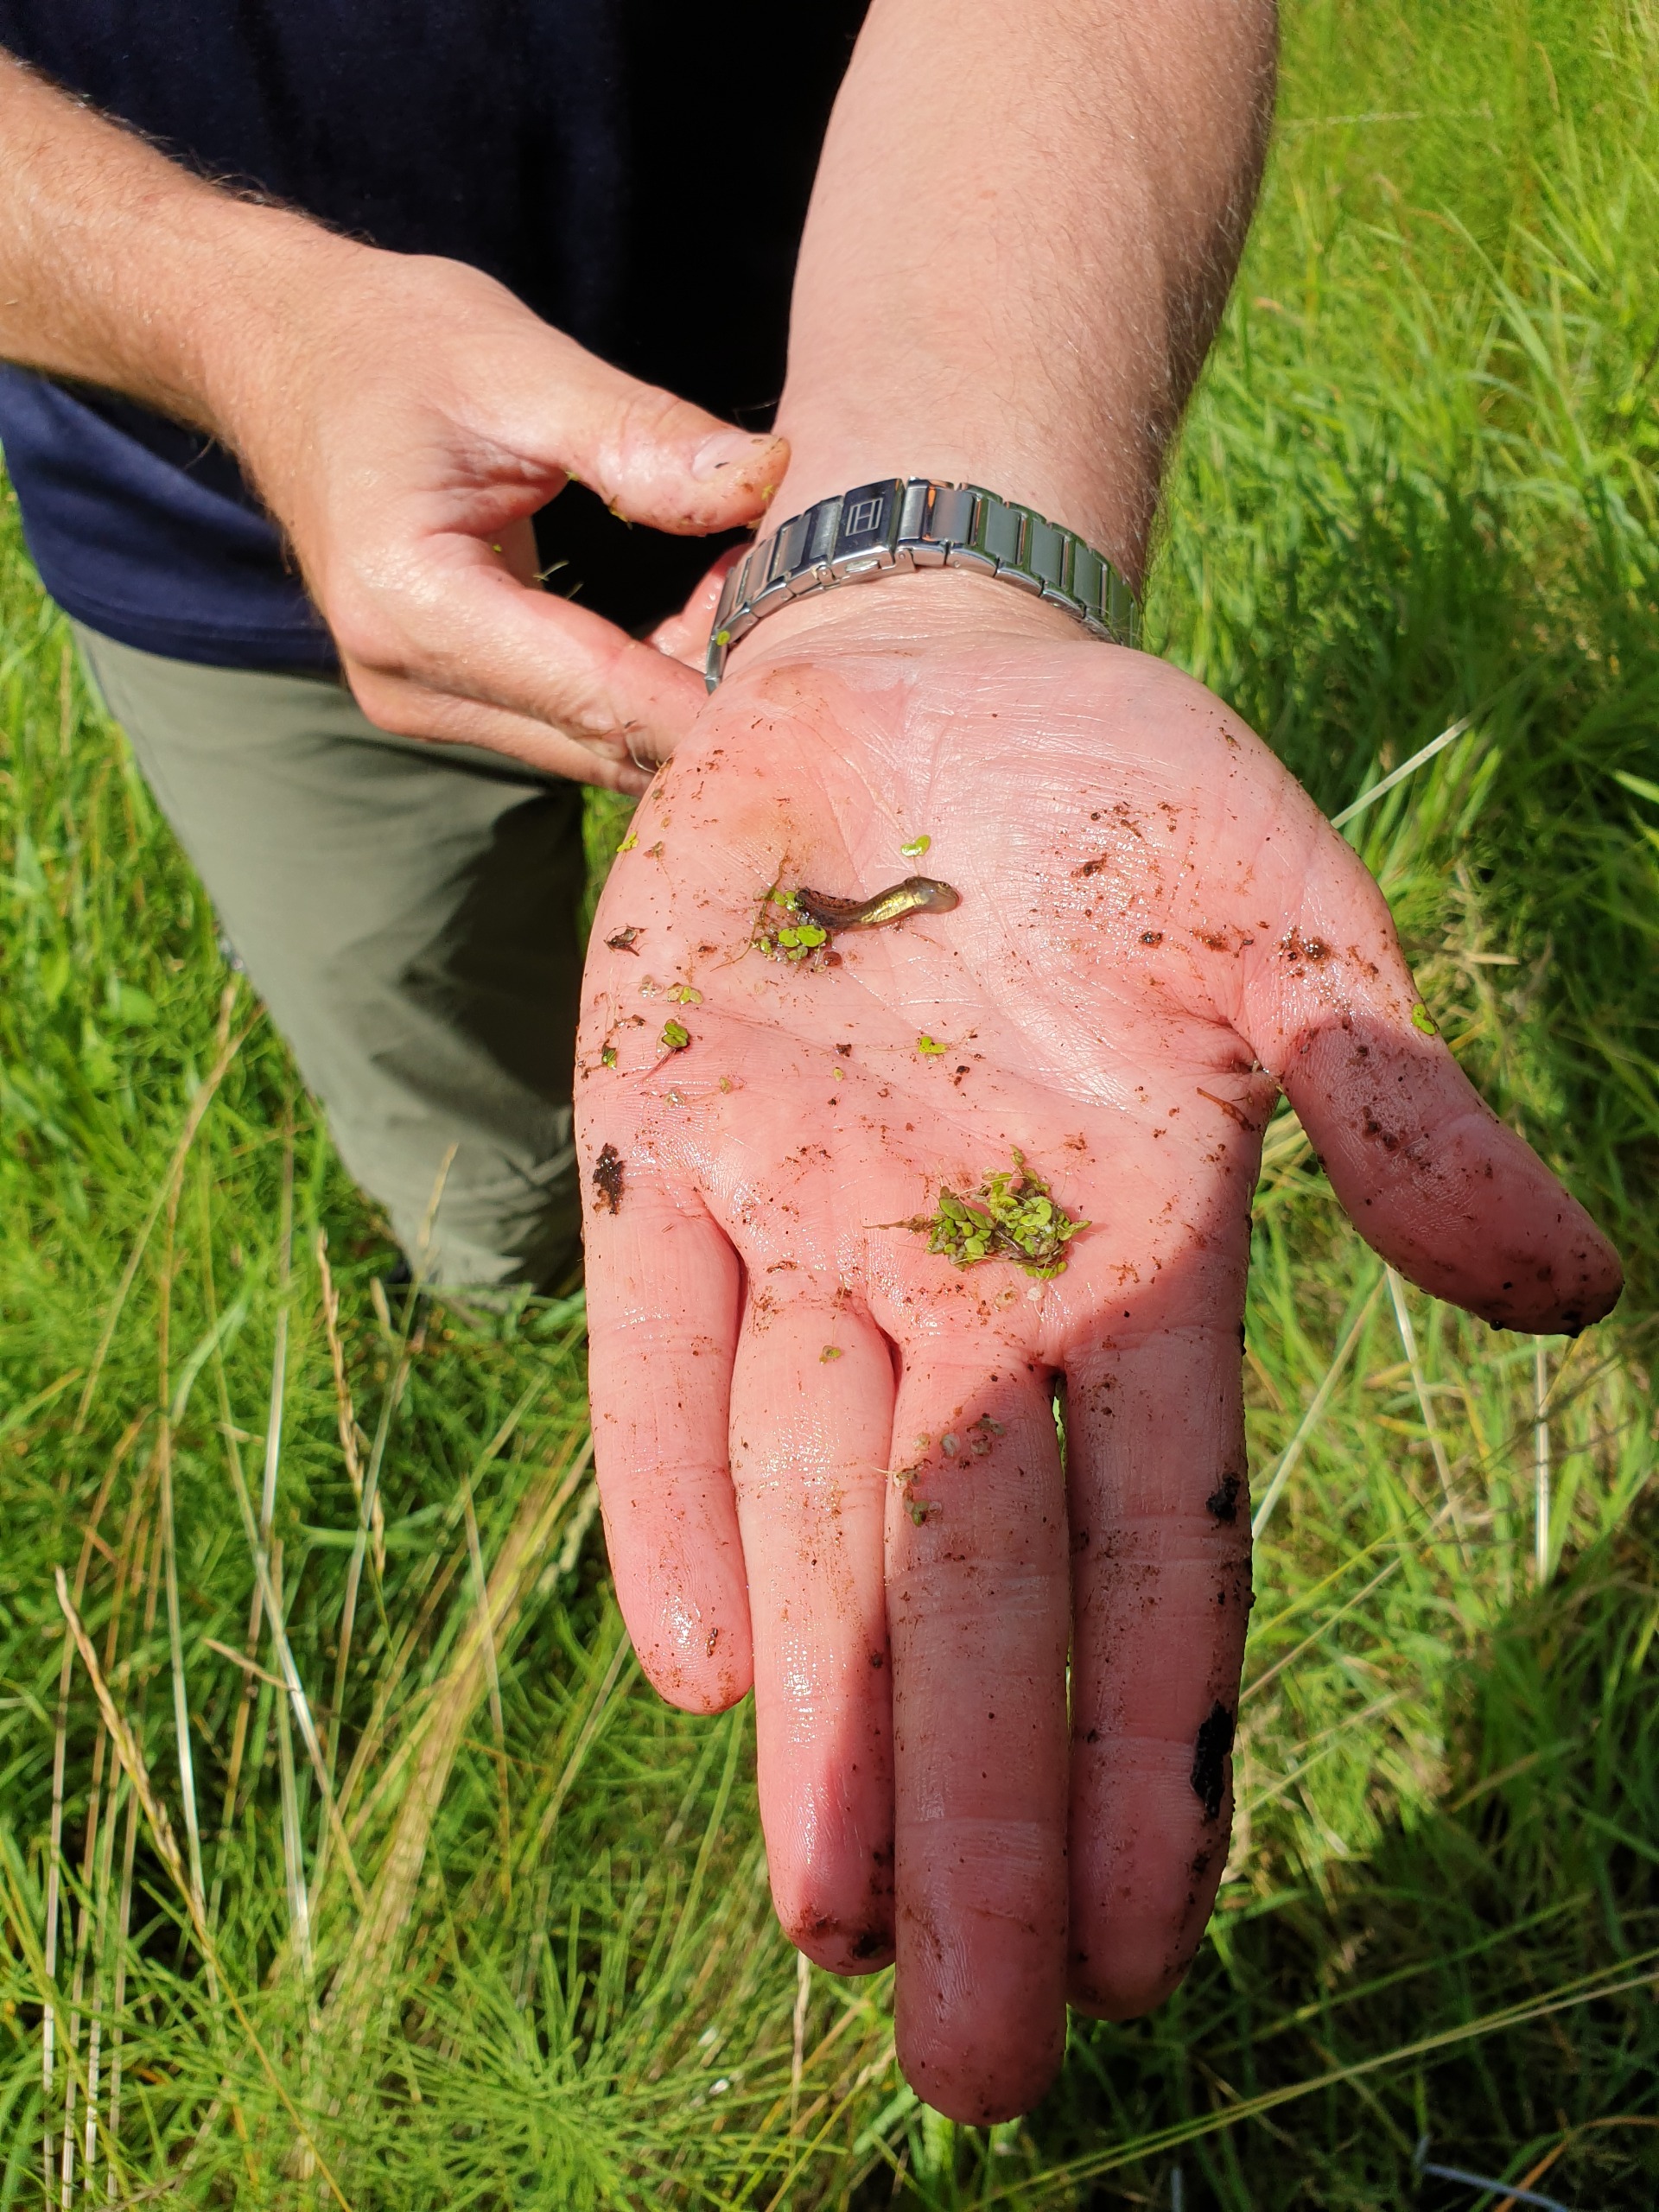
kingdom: Animalia
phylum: Chordata
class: Amphibia
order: Caudata
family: Salamandridae
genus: Triturus
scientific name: Triturus cristatus
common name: Stor vandsalamander
